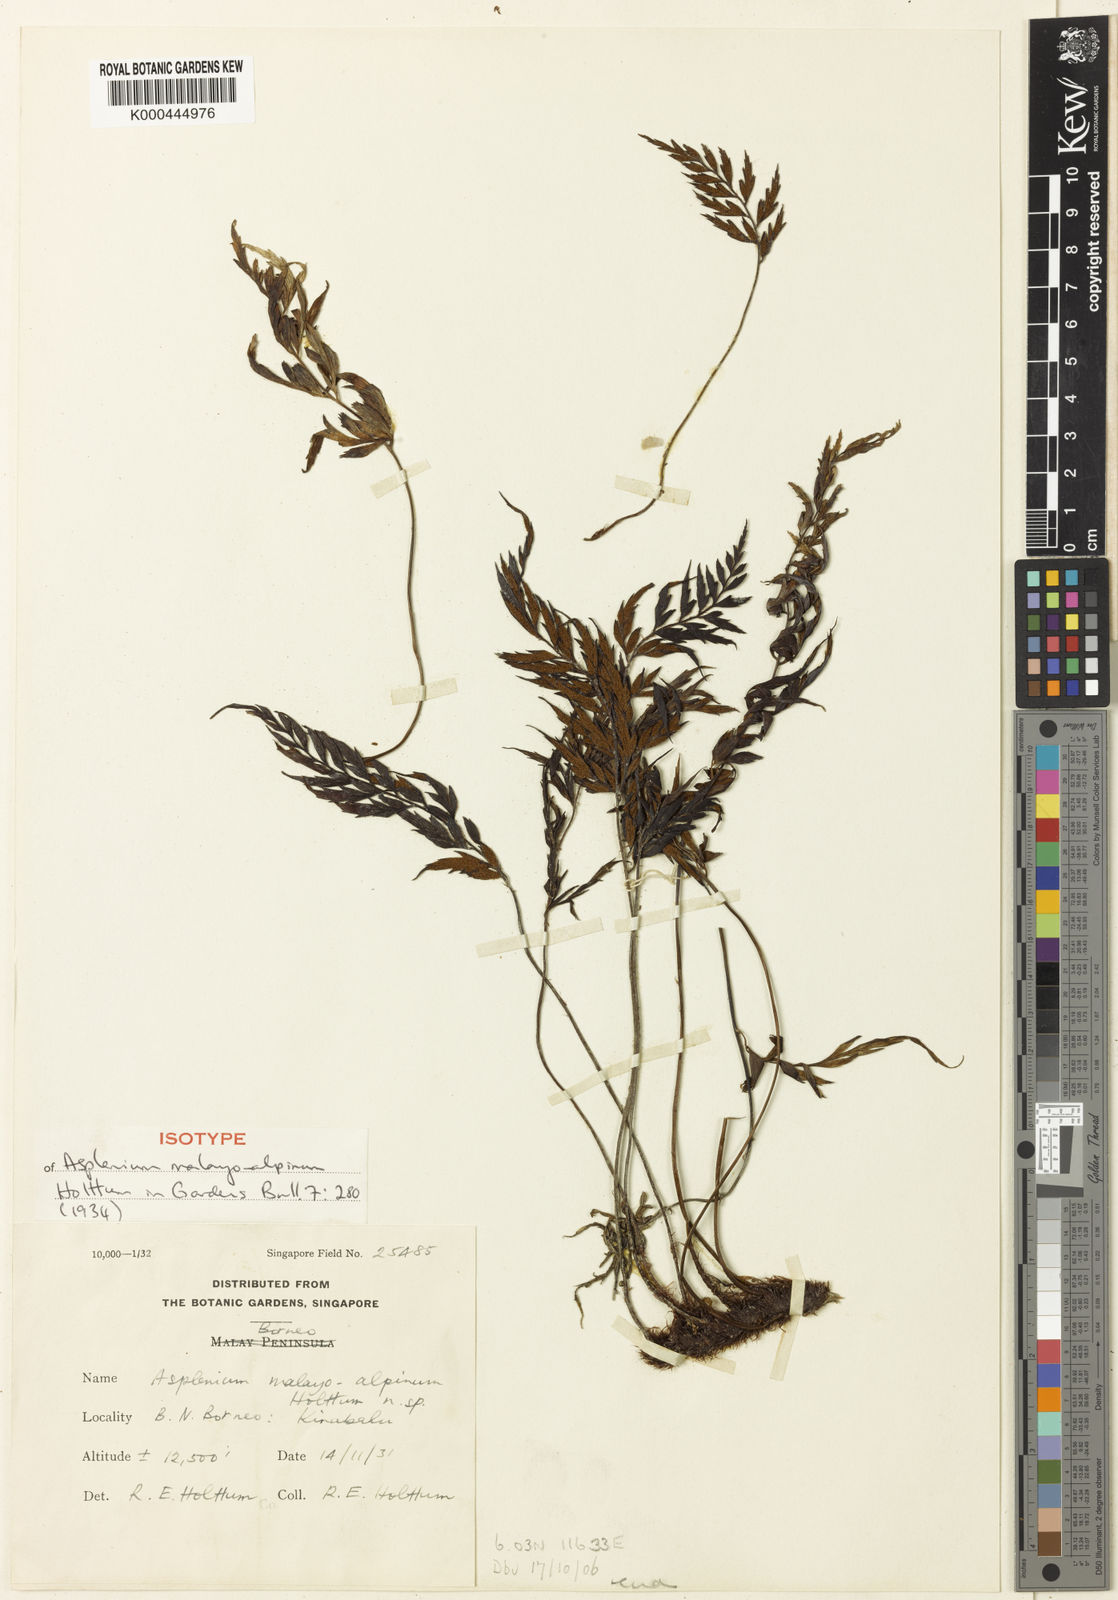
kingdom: Plantae
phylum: Tracheophyta
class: Polypodiopsida
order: Polypodiales
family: Aspleniaceae
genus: Asplenium
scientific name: Asplenium setisectum
